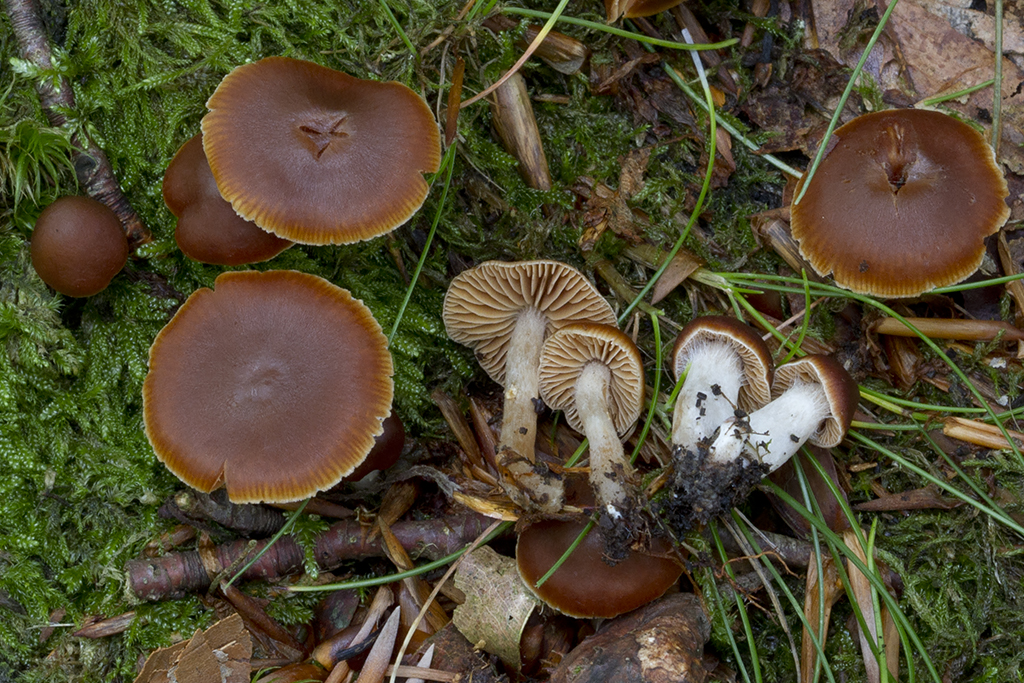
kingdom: Fungi
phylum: Basidiomycota
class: Agaricomycetes
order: Agaricales
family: Cortinariaceae
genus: Cortinarius
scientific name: Cortinarius pallidostriatoides
